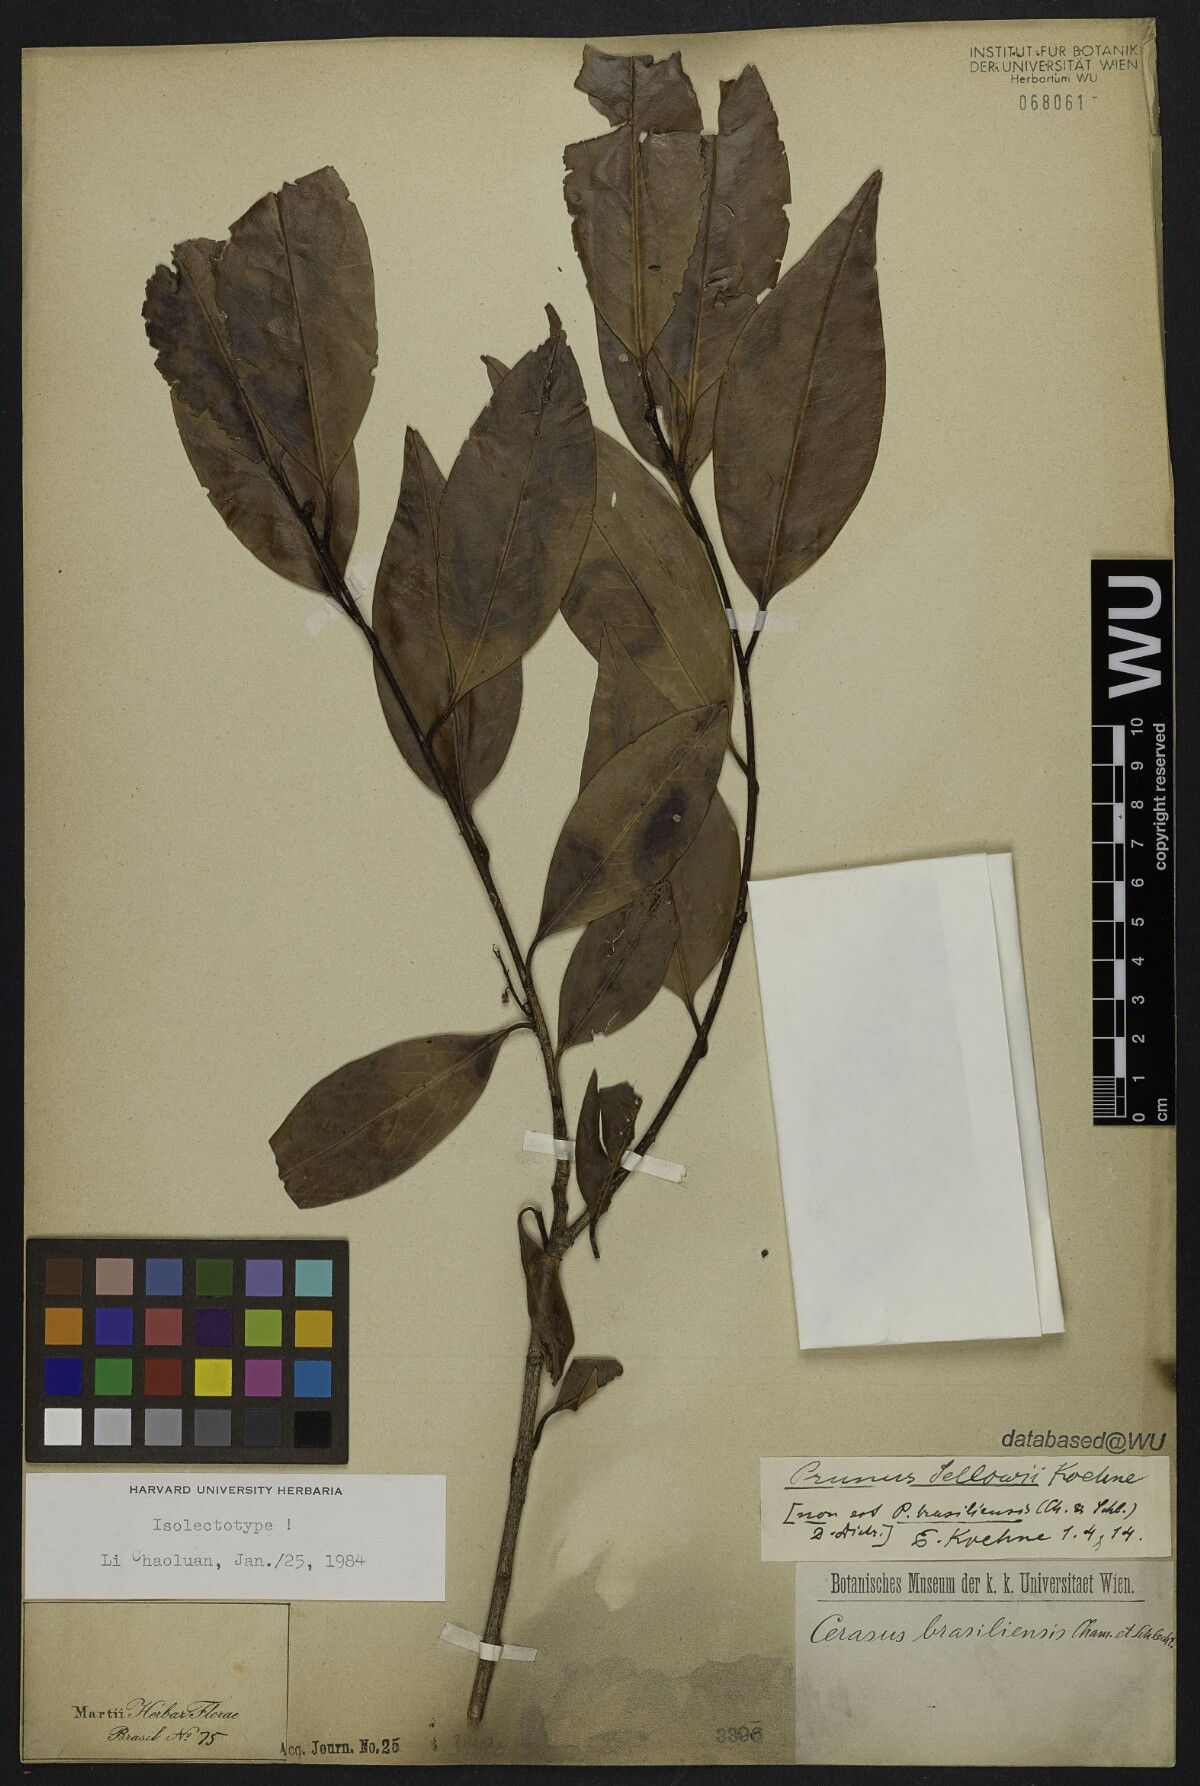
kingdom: Plantae
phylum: Tracheophyta
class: Magnoliopsida
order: Rosales
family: Rosaceae
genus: Prunus
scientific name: Prunus reflexa
